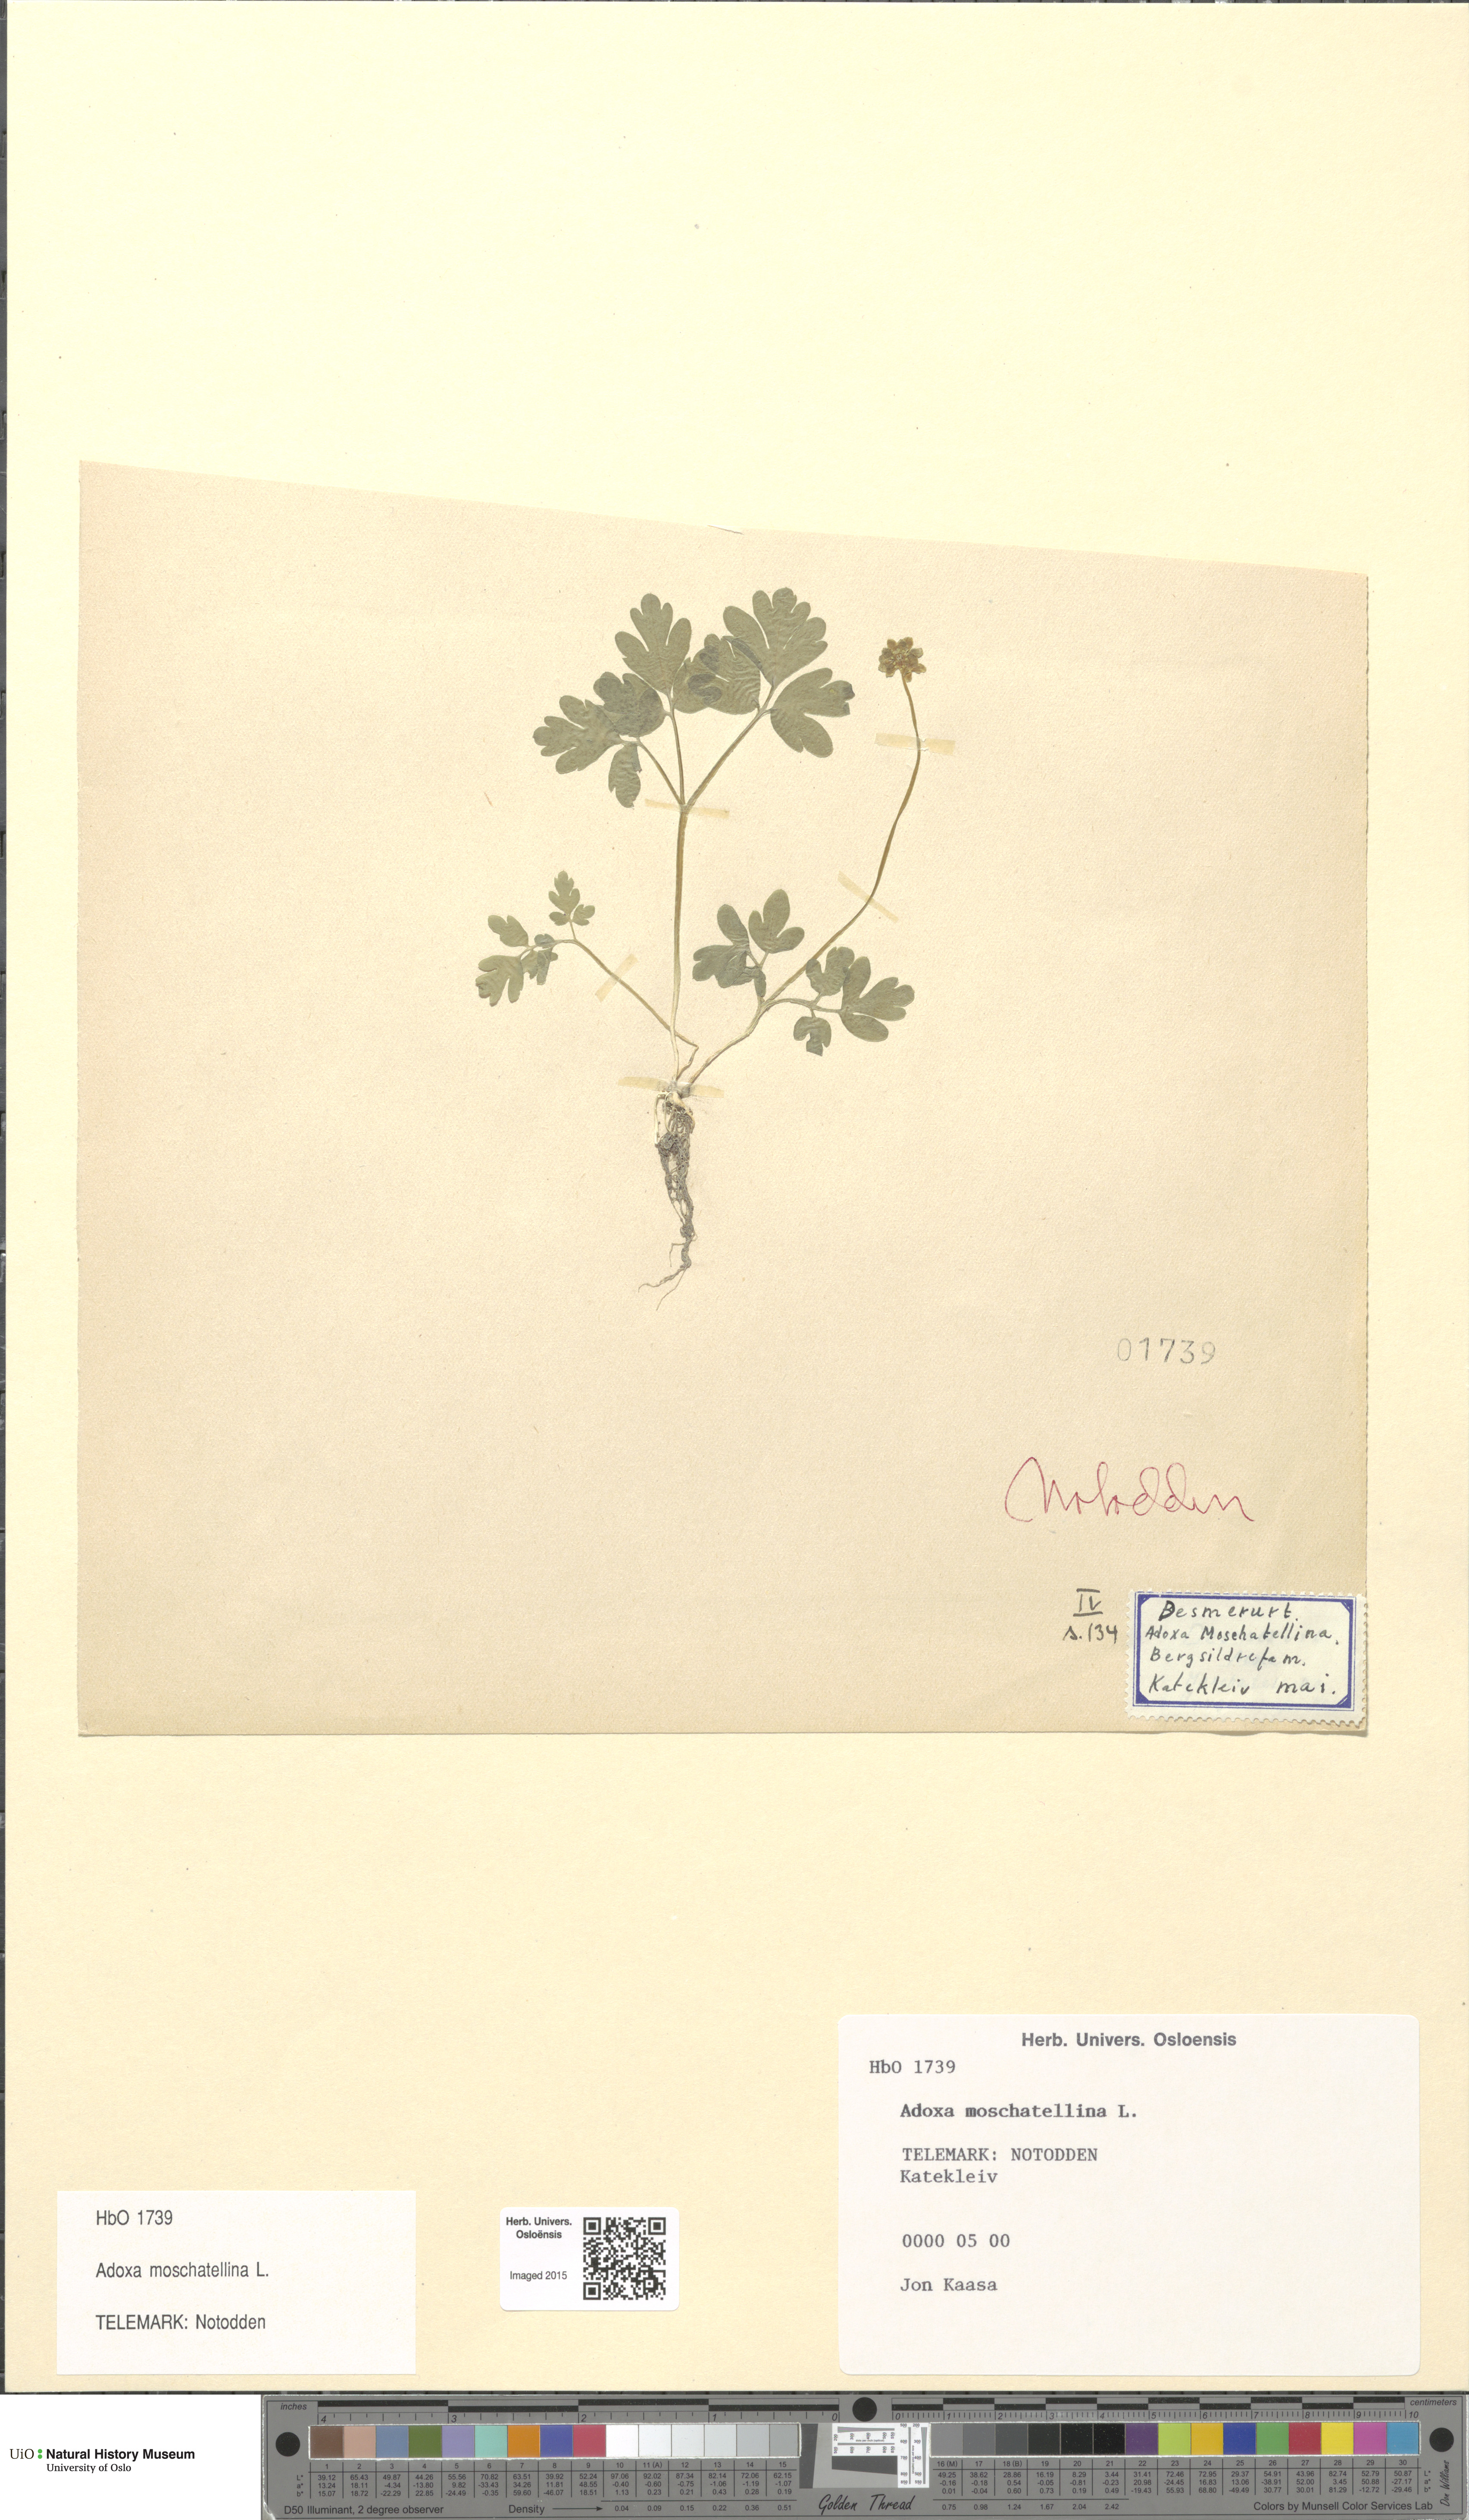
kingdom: Plantae
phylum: Tracheophyta
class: Magnoliopsida
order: Dipsacales
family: Viburnaceae
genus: Adoxa
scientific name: Adoxa moschatellina
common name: Moschatel
